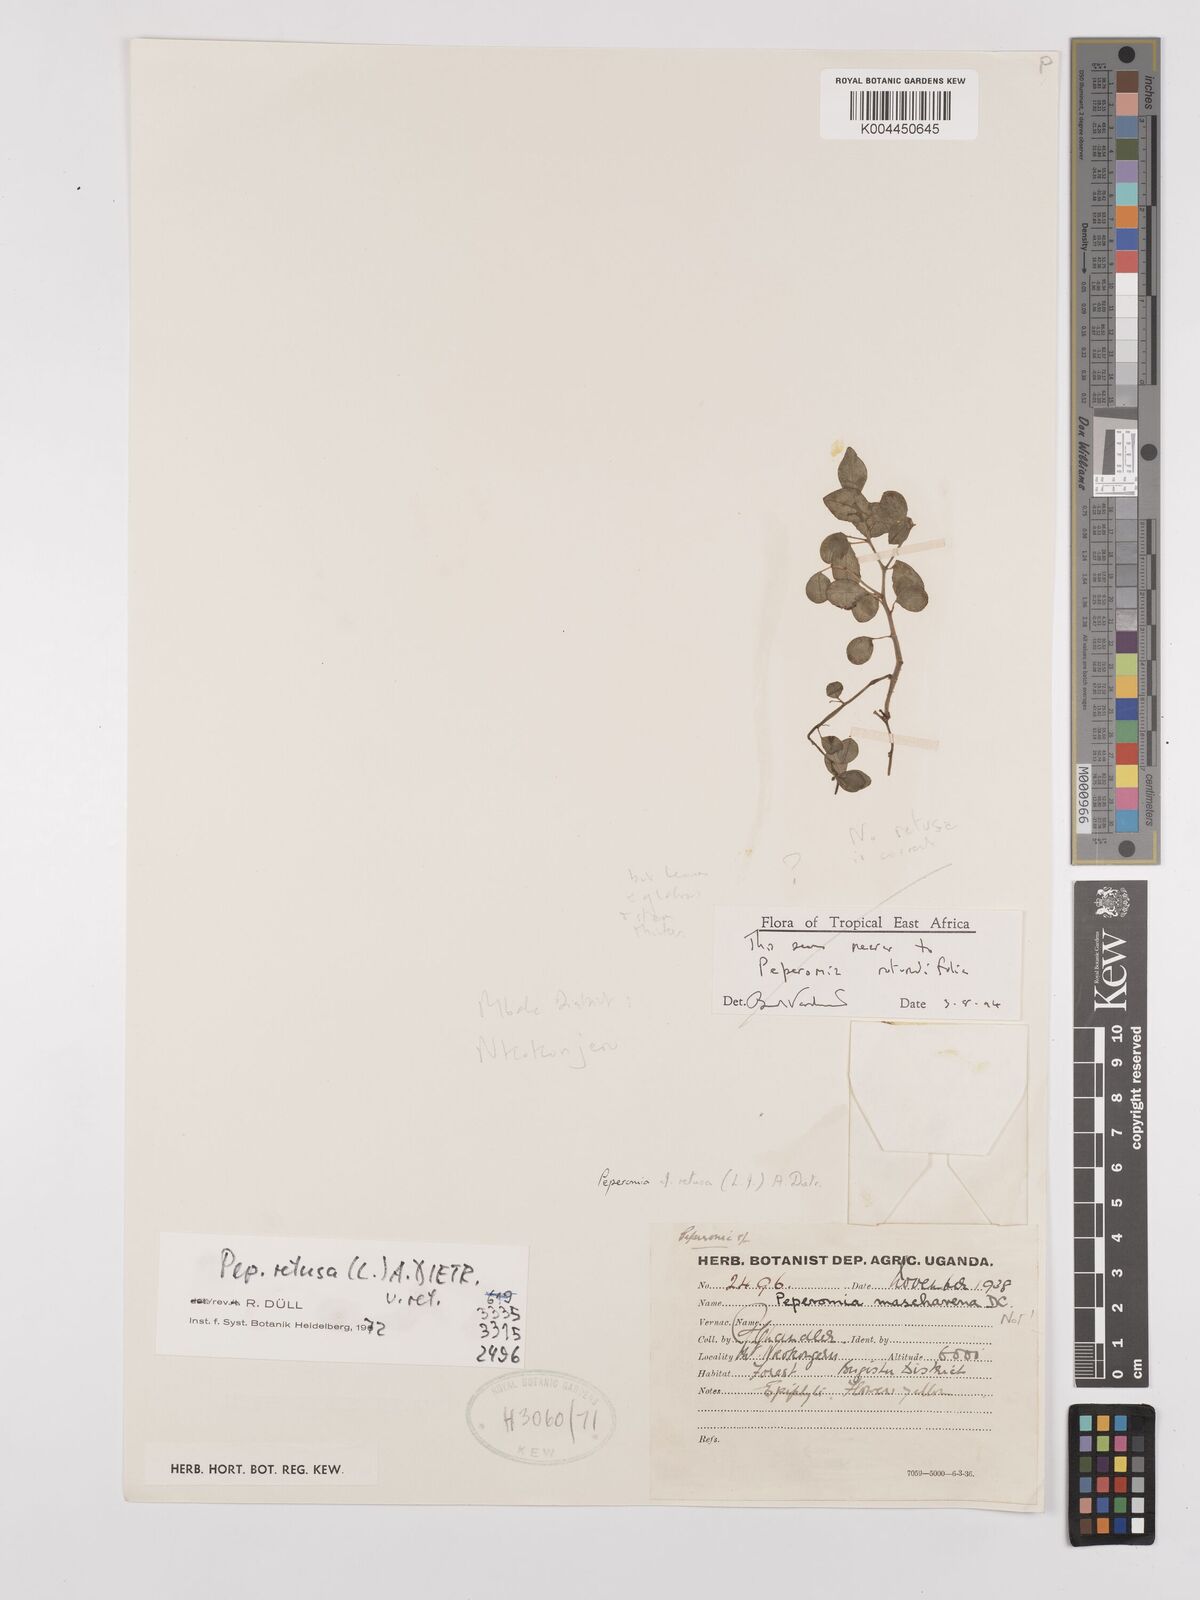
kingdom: Plantae
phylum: Tracheophyta
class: Magnoliopsida
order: Piperales
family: Piperaceae
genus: Peperomia
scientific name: Peperomia retusa
